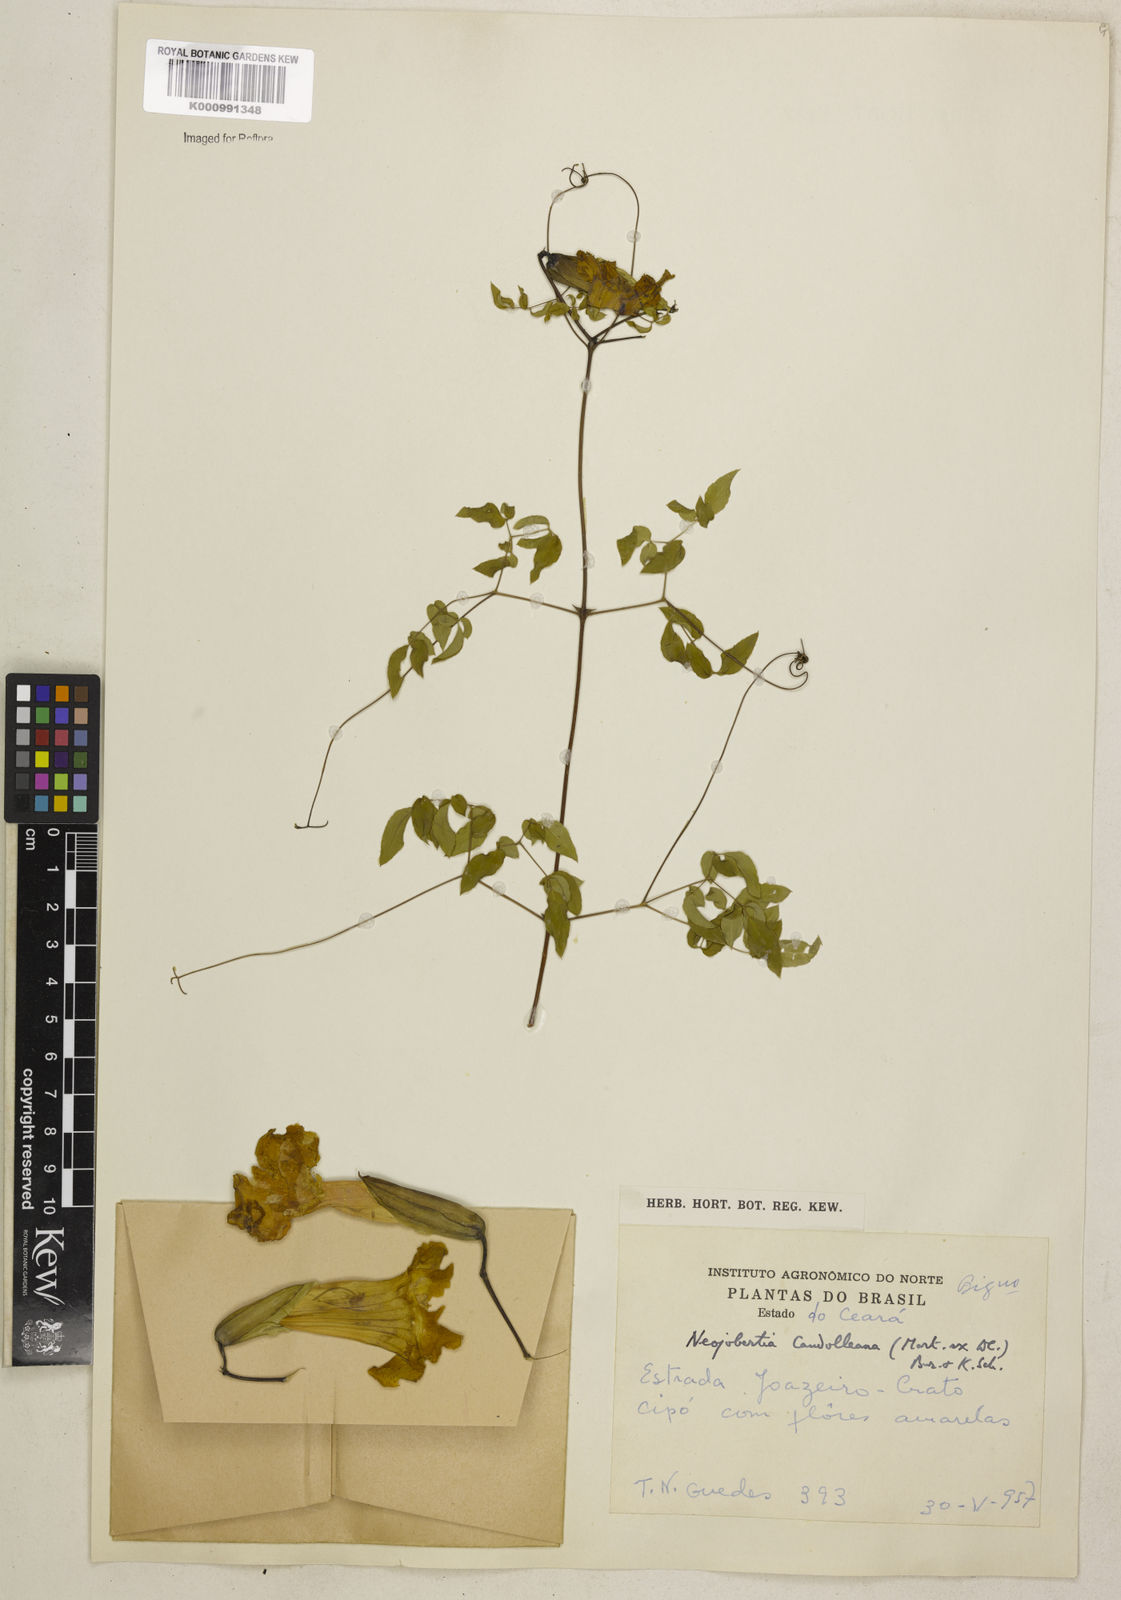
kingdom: Plantae
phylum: Tracheophyta
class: Magnoliopsida
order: Lamiales
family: Bignoniaceae
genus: Adenocalymma
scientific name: Adenocalymma candolleanum
